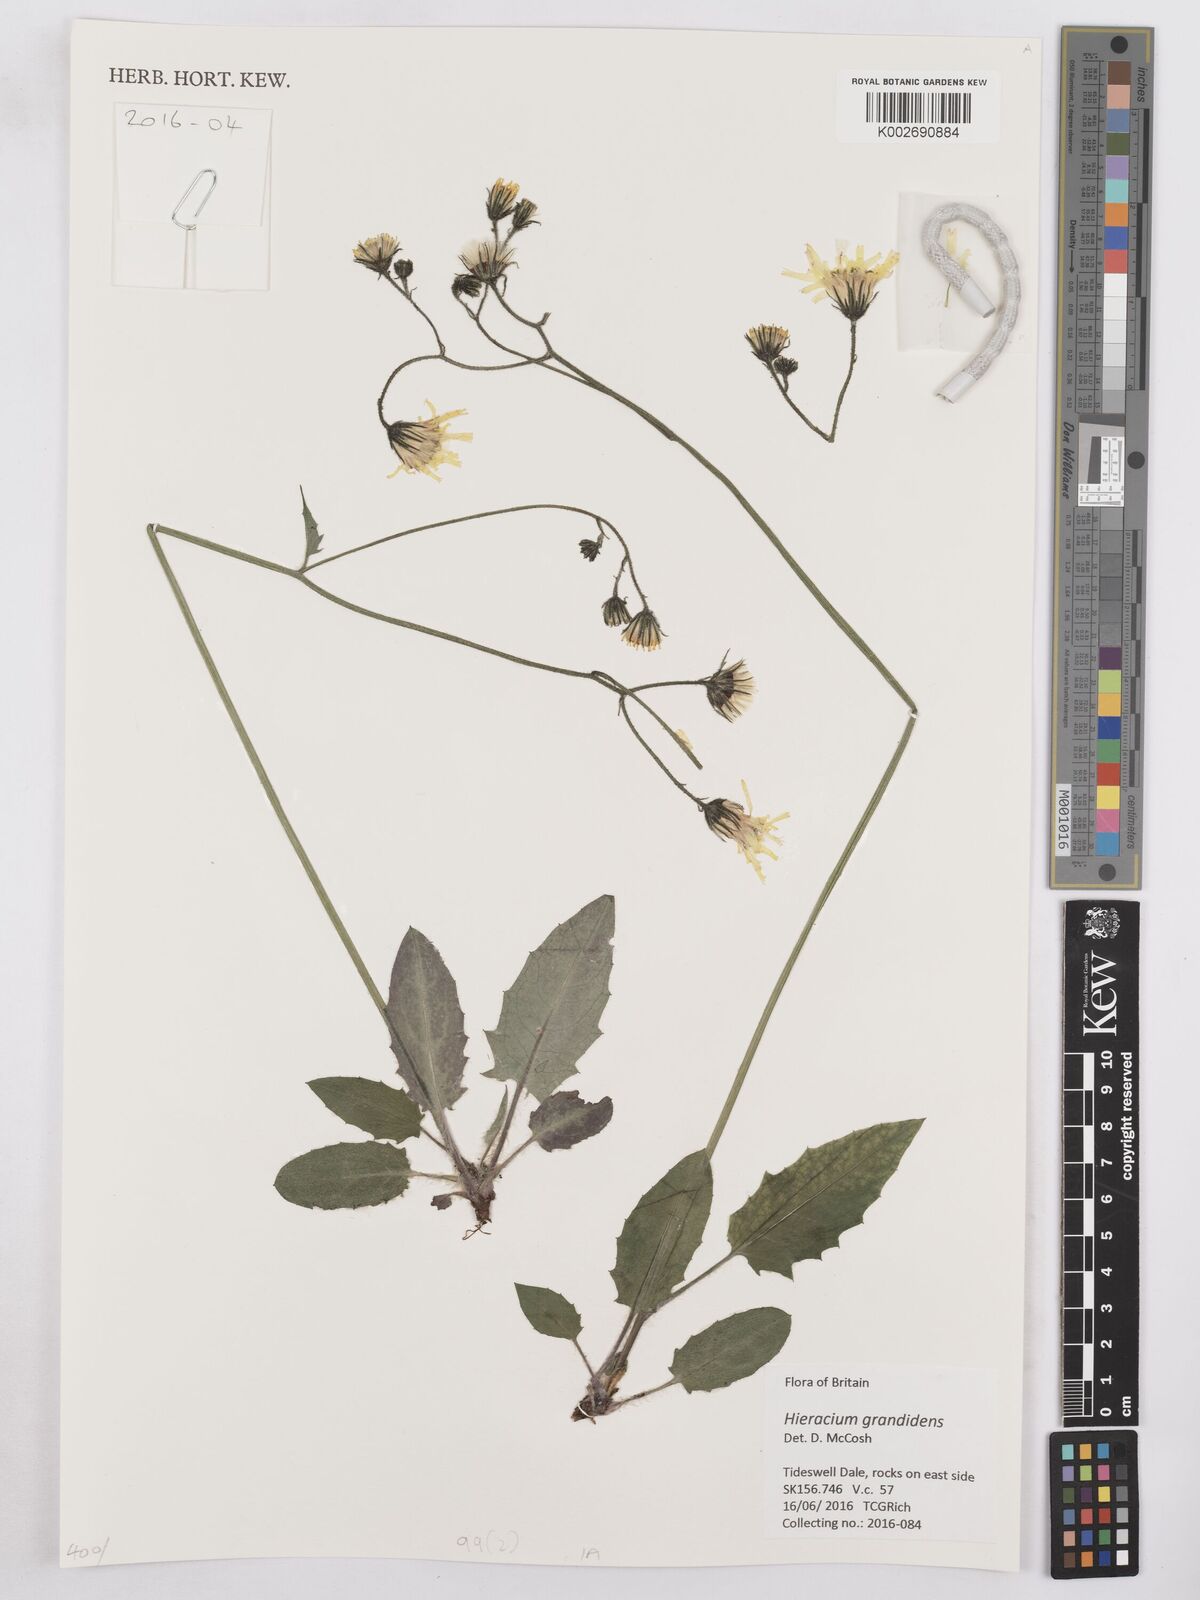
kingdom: Plantae
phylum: Tracheophyta
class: Magnoliopsida
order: Asterales
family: Asteraceae
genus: Hieracium
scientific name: Hieracium murorum
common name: Wall hawkweed
